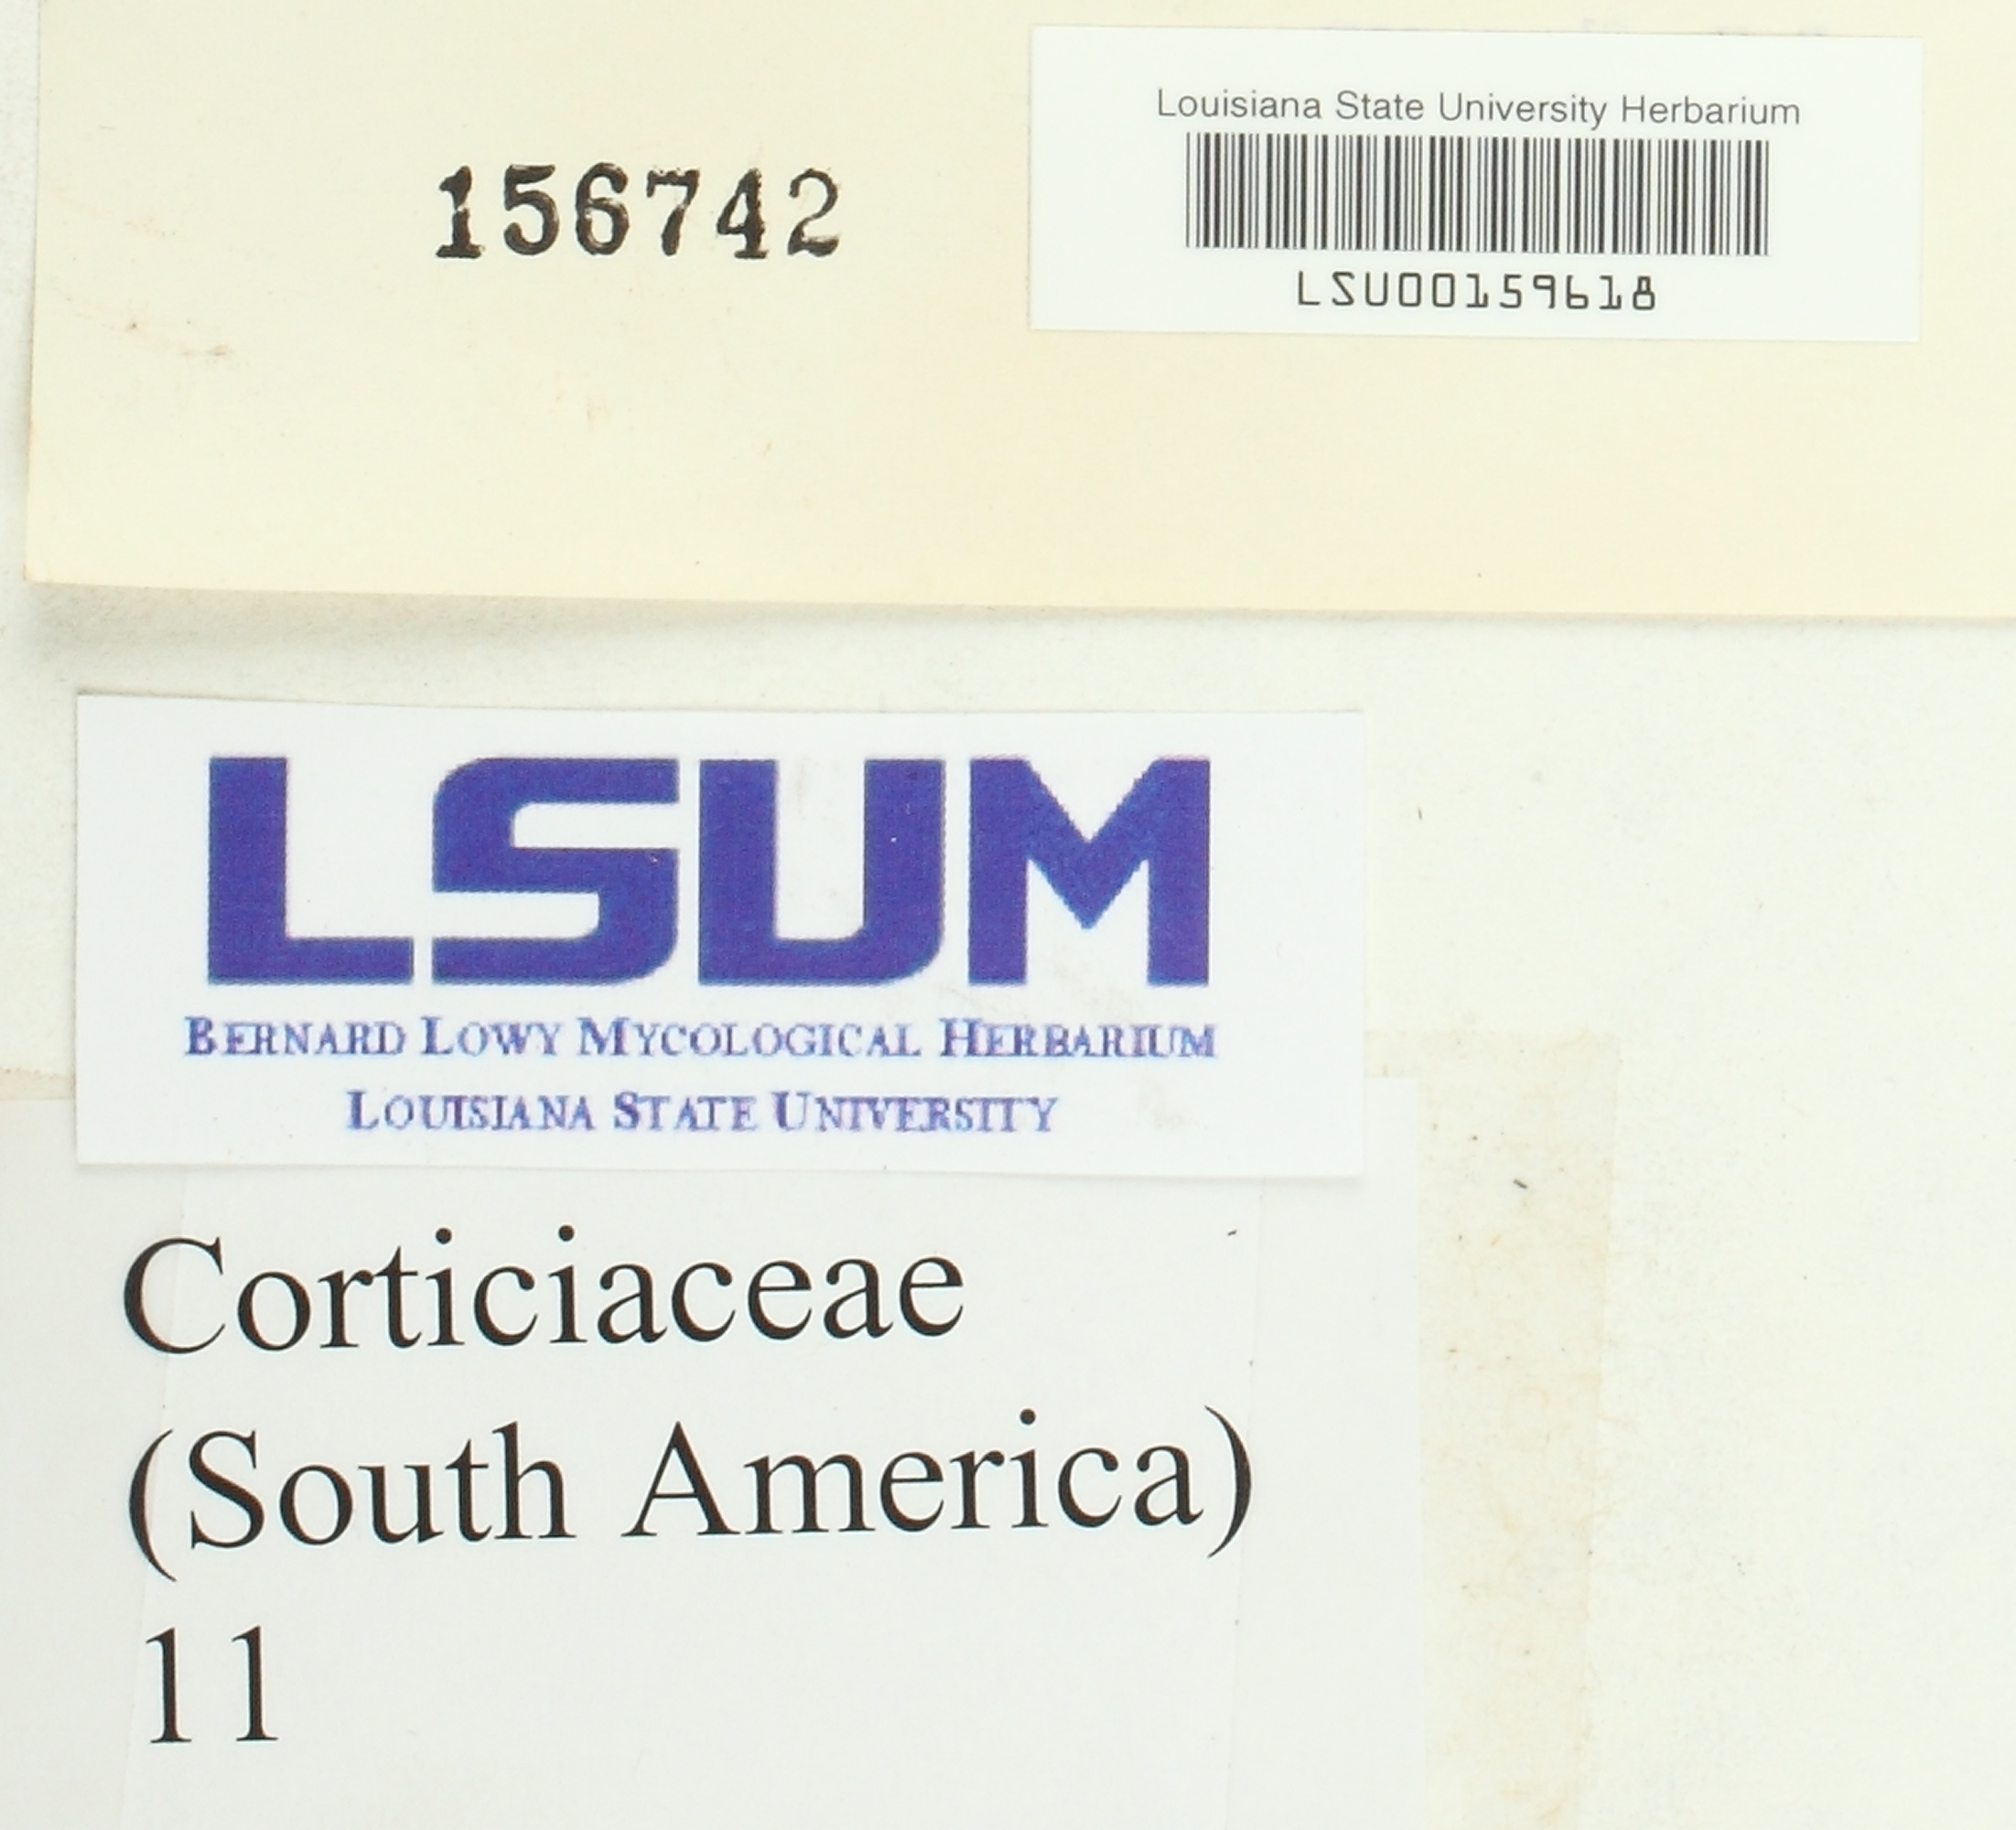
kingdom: Fungi
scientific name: Fungi
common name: Fungi
